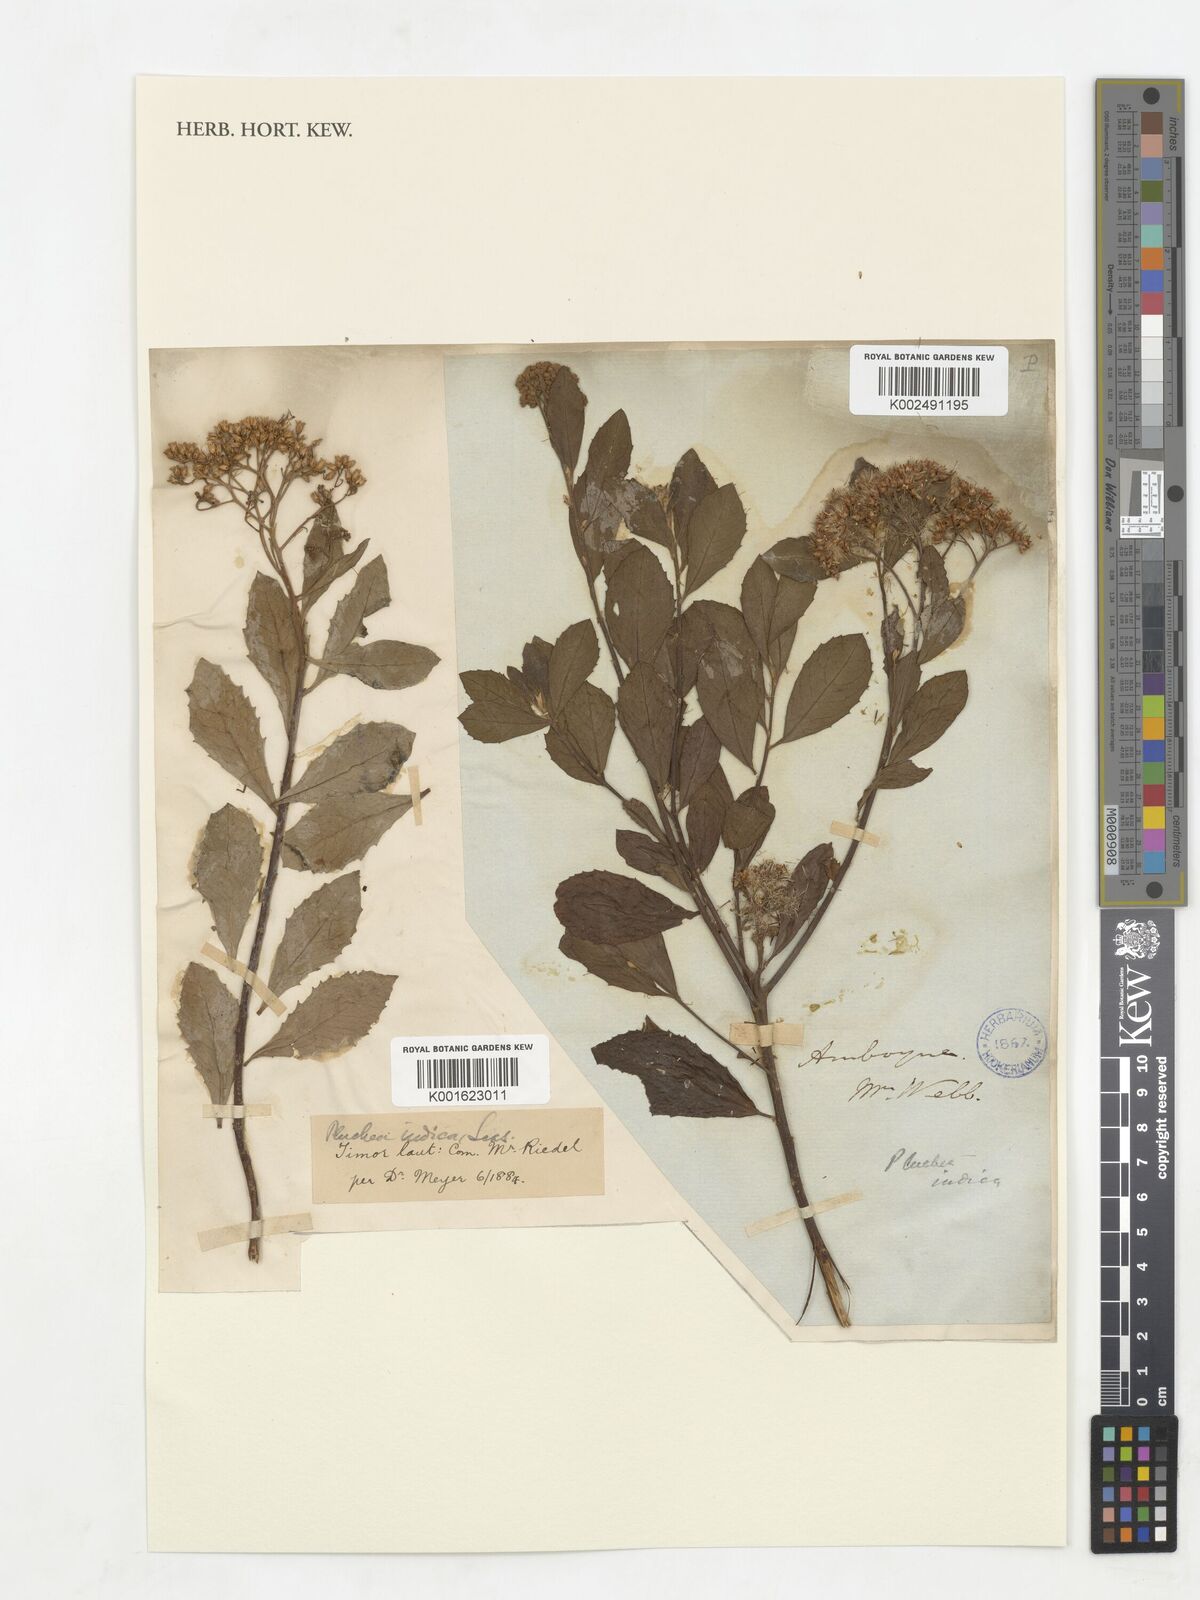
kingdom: Plantae
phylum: Tracheophyta
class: Magnoliopsida
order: Asterales
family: Asteraceae
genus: Pluchea
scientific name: Pluchea indica
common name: Indian fleabane
